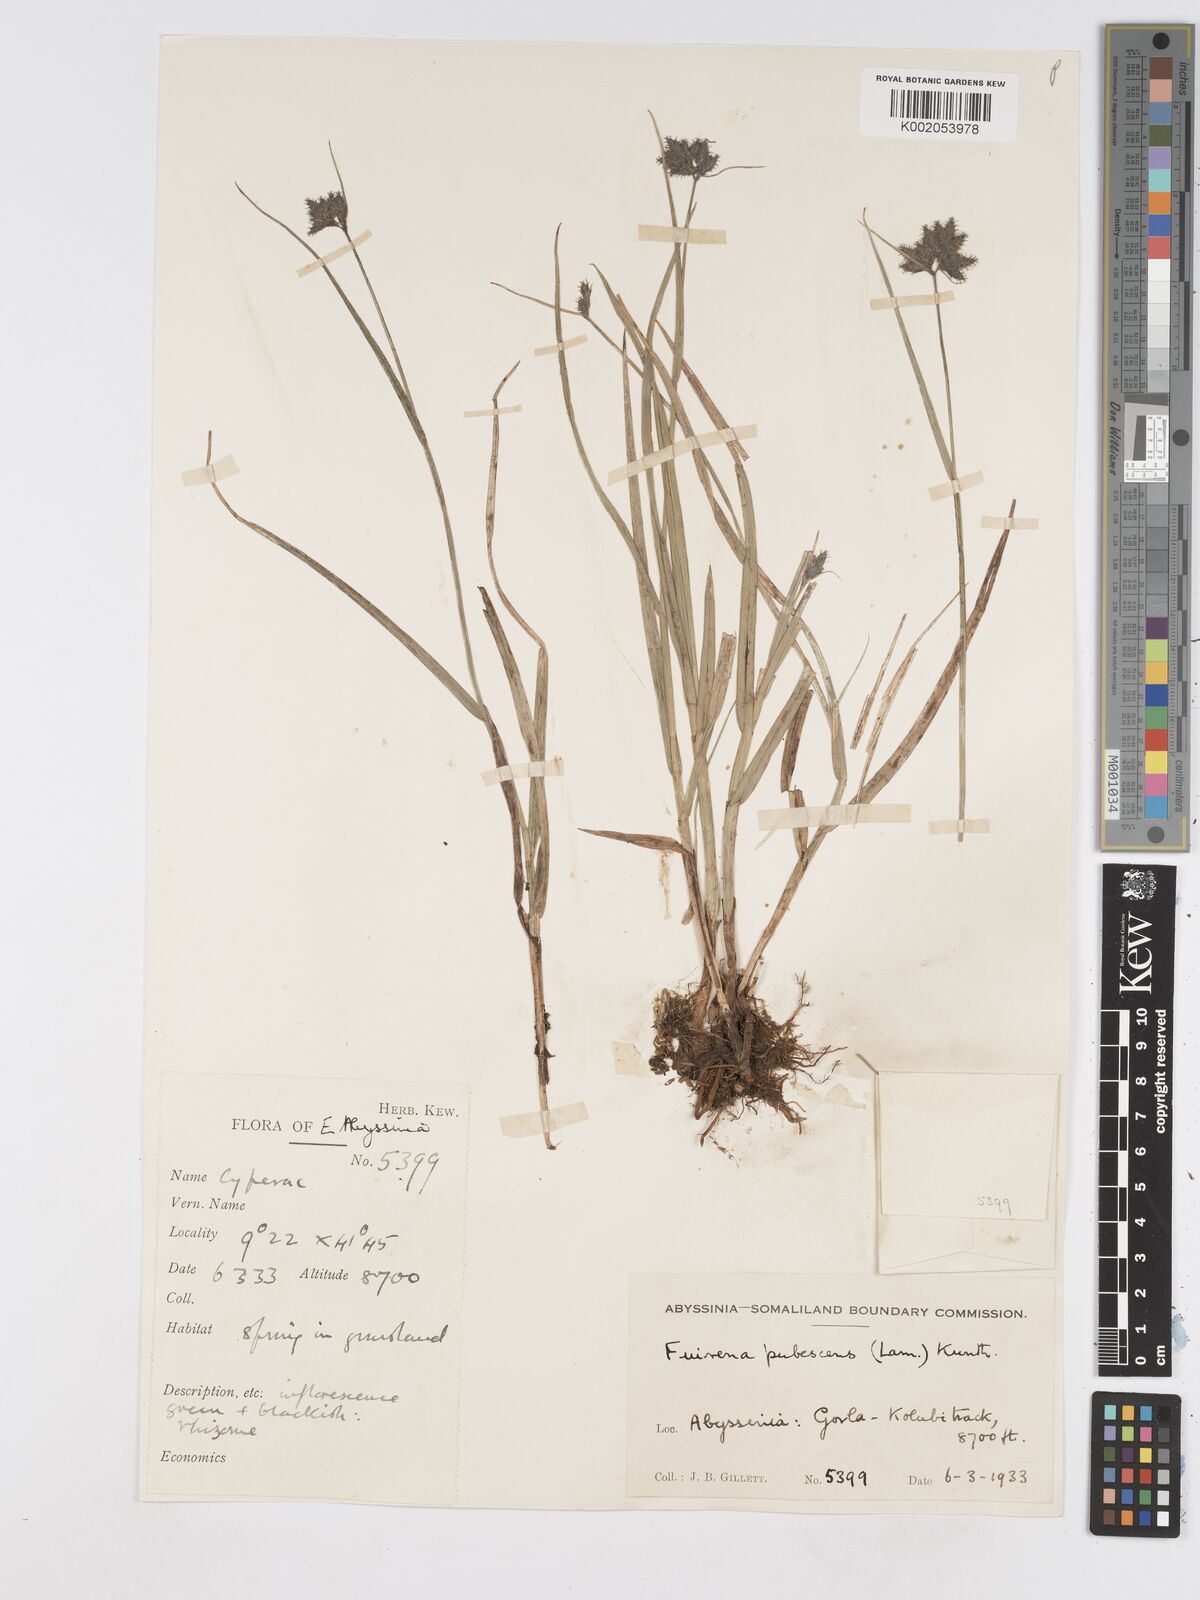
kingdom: Plantae
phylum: Tracheophyta
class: Liliopsida
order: Poales
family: Cyperaceae
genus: Fuirena
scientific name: Fuirena pachyrrhiza
